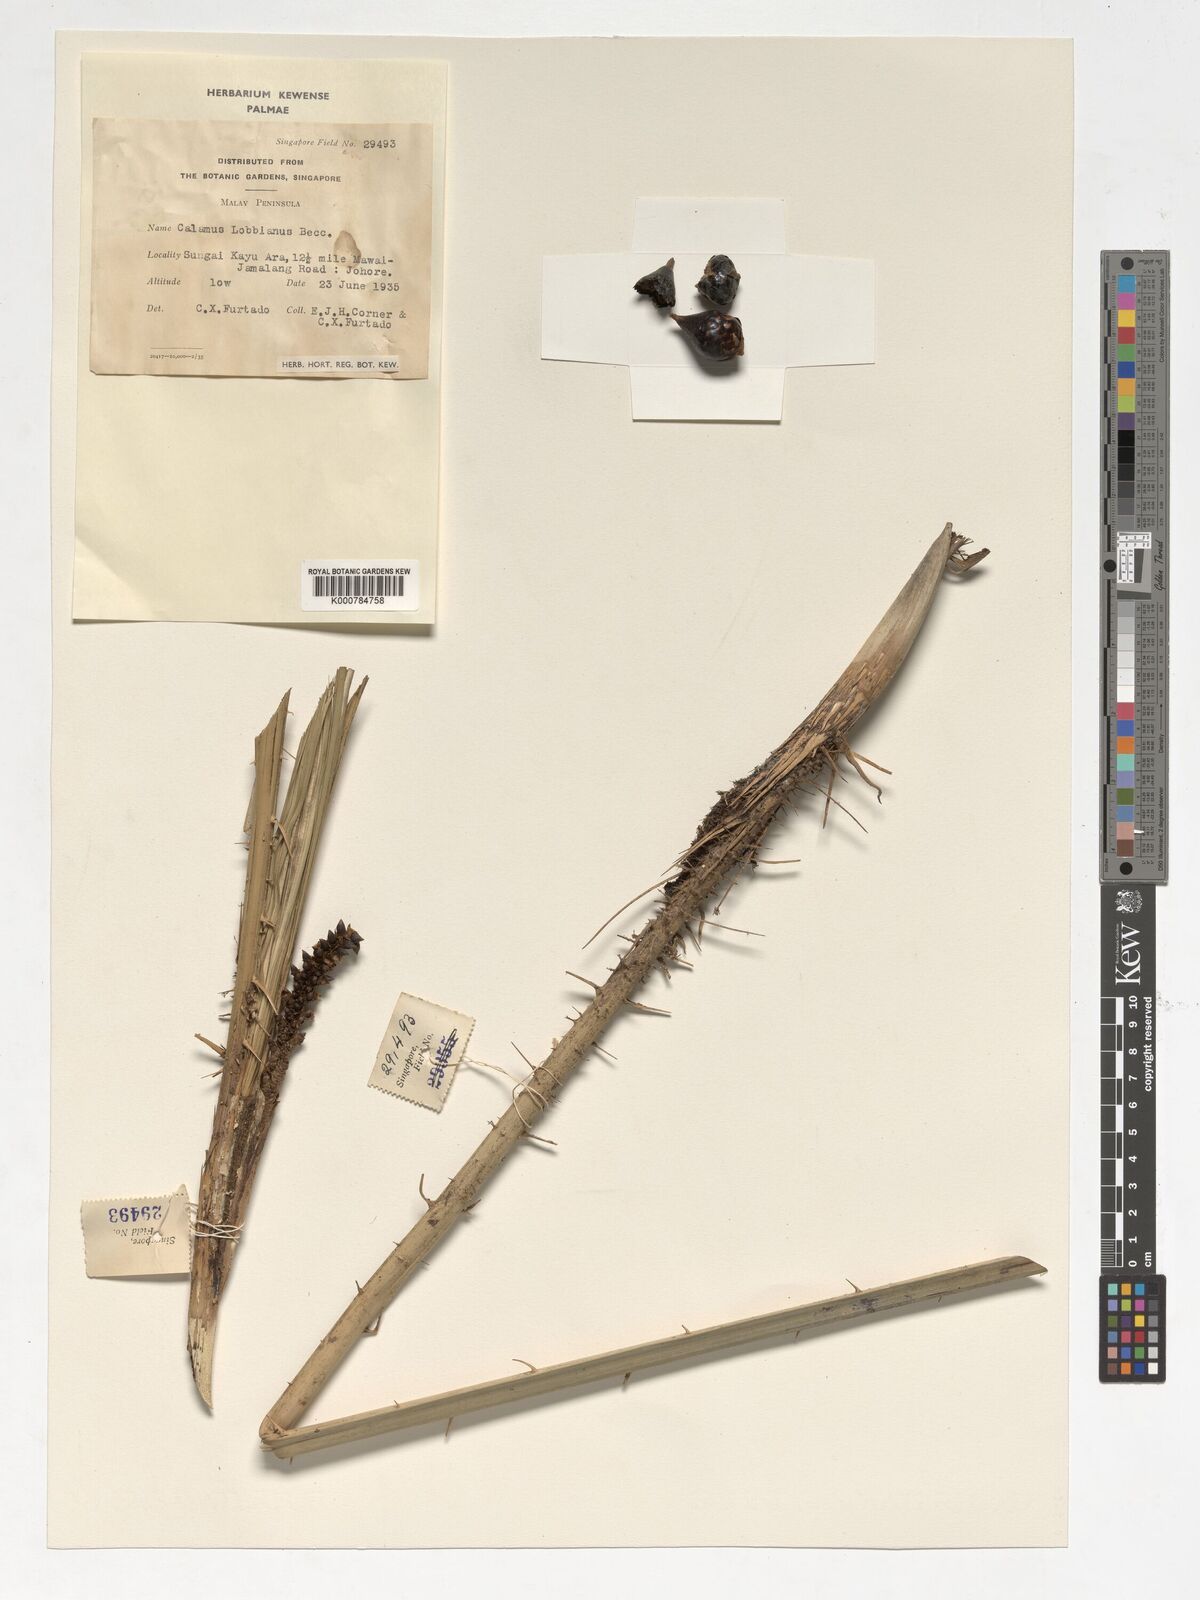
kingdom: Plantae
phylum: Tracheophyta
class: Liliopsida
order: Arecales
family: Arecaceae
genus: Calamus
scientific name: Calamus lobbianus
